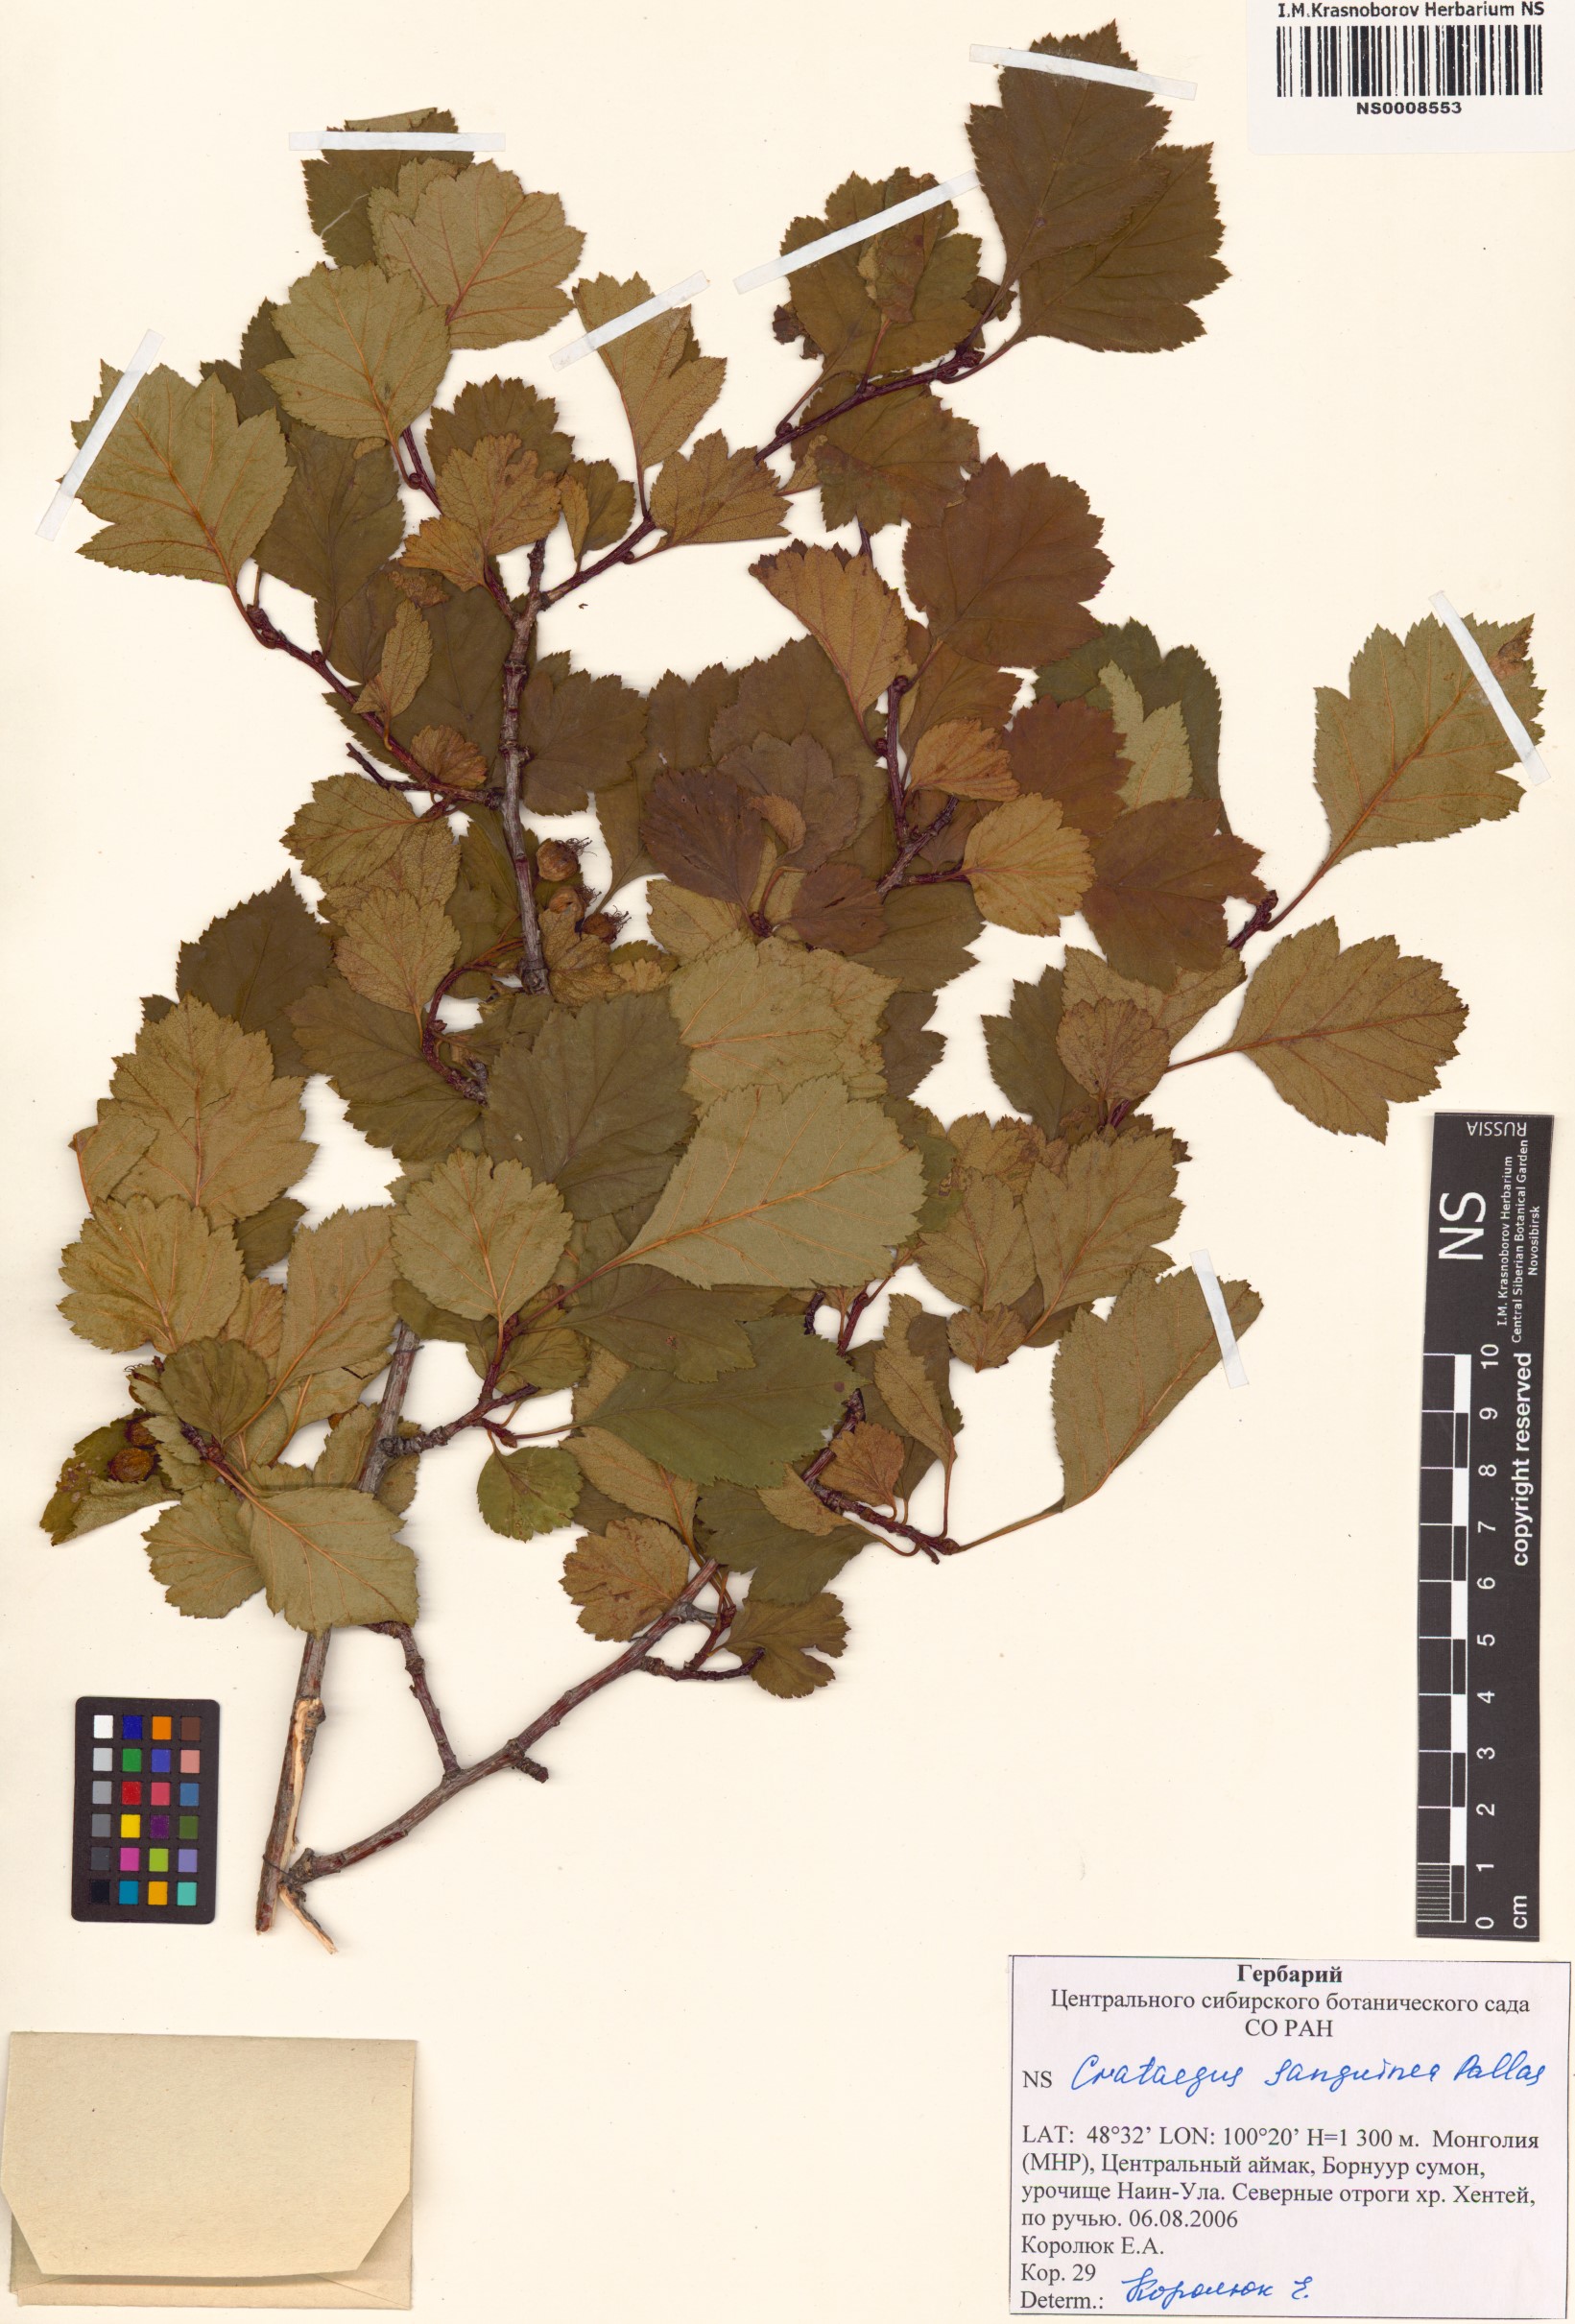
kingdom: Plantae
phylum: Tracheophyta
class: Magnoliopsida
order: Rosales
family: Rosaceae
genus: Crataegus
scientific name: Crataegus sanguinea
